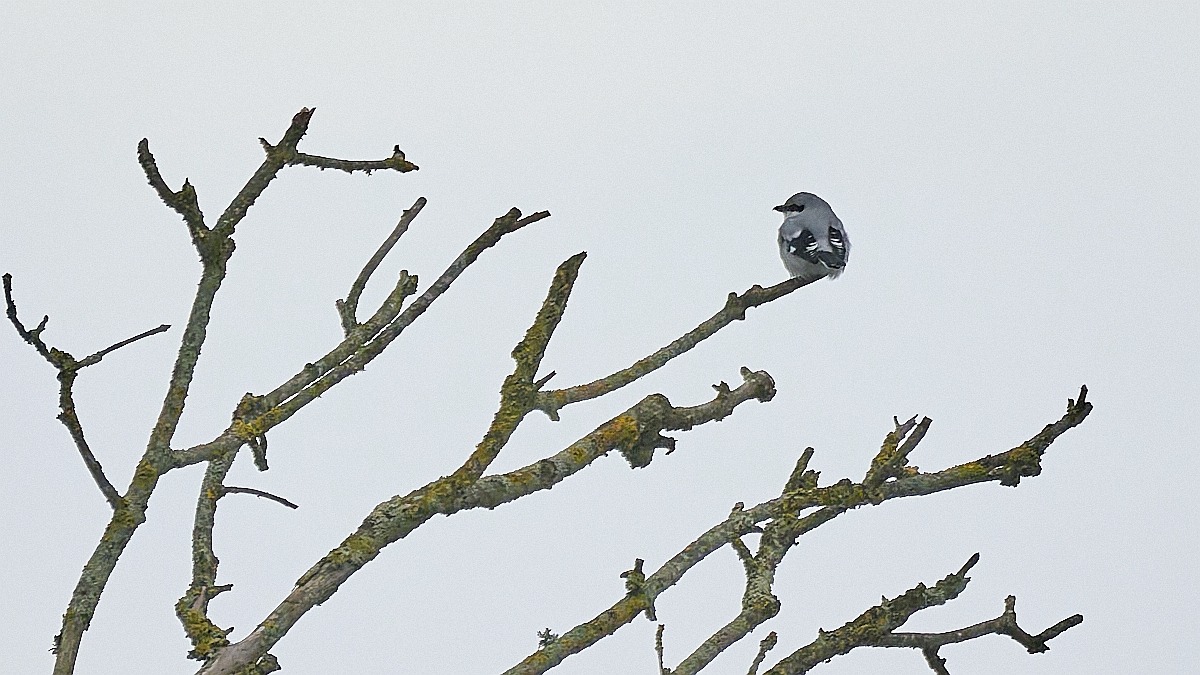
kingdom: Animalia
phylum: Chordata
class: Aves
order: Passeriformes
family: Laniidae
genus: Lanius
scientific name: Lanius excubitor
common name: Stor tornskade
